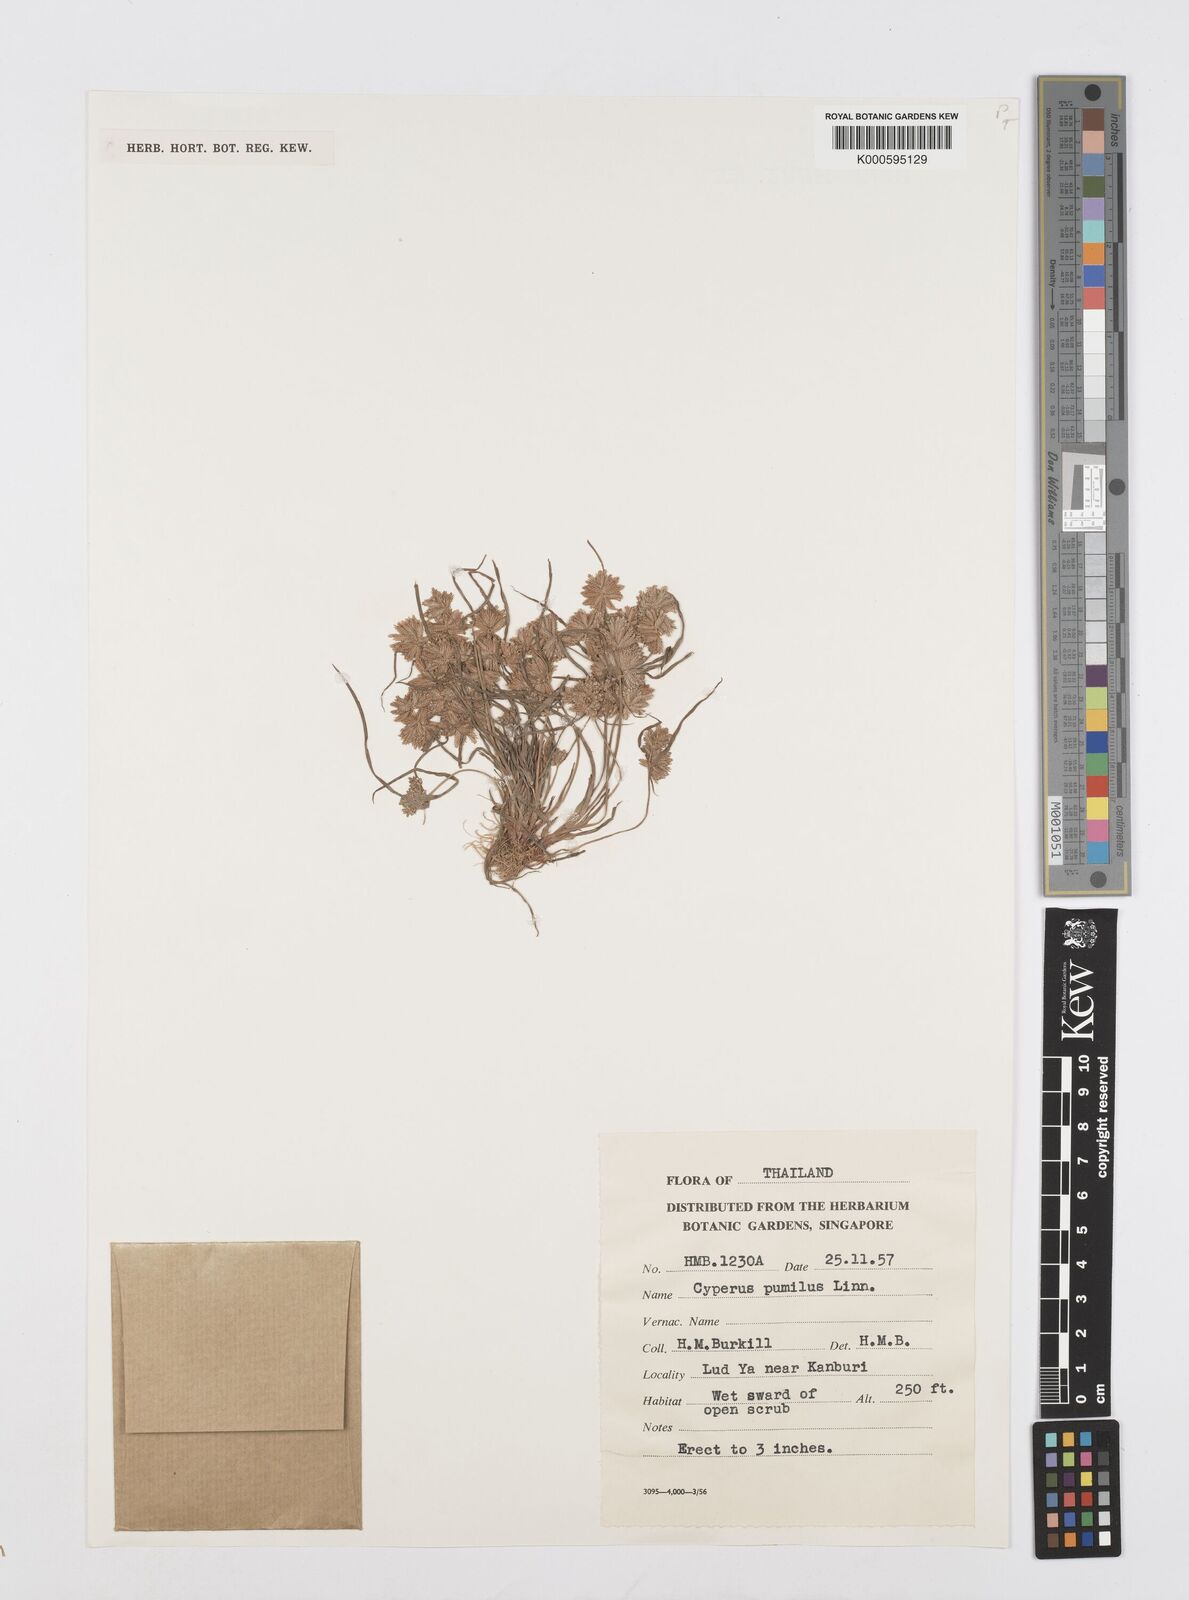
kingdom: Plantae
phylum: Tracheophyta
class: Liliopsida
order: Poales
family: Cyperaceae
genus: Cyperus
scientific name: Cyperus pumilus
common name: Low flatsedge
